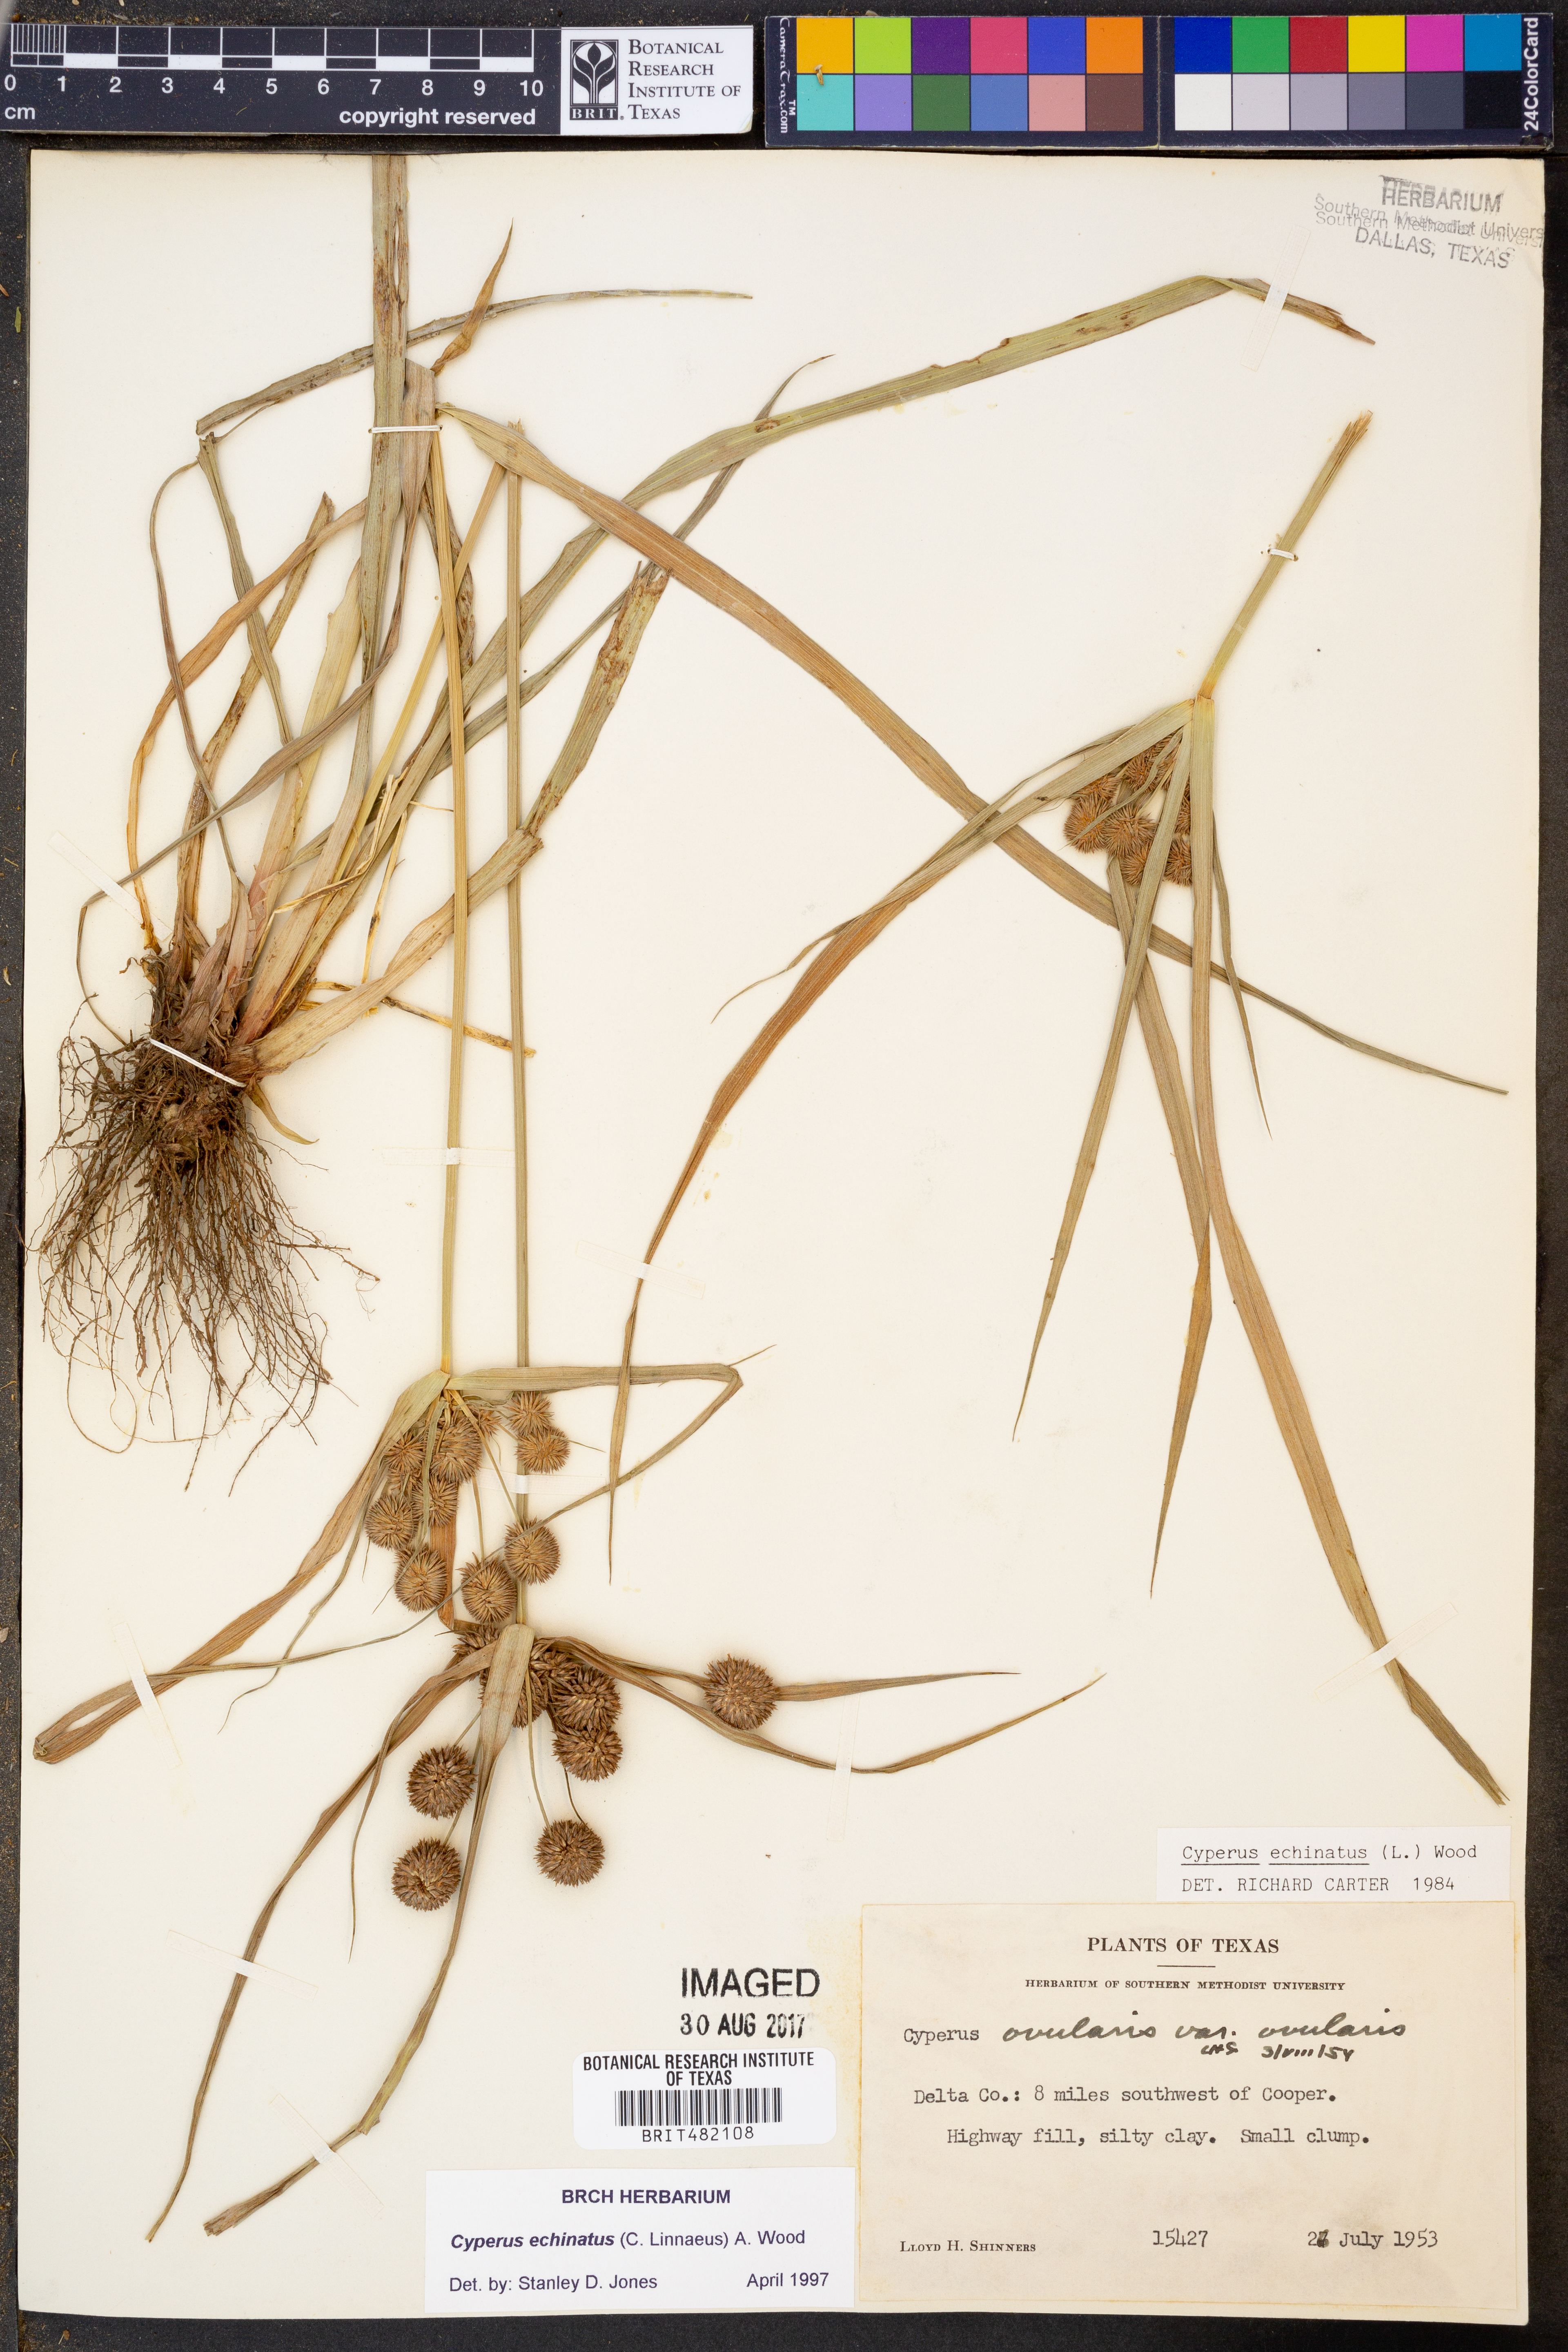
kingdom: Plantae
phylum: Tracheophyta
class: Liliopsida
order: Poales
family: Cyperaceae
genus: Cyperus
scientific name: Cyperus echinatus
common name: Teasel sedge
